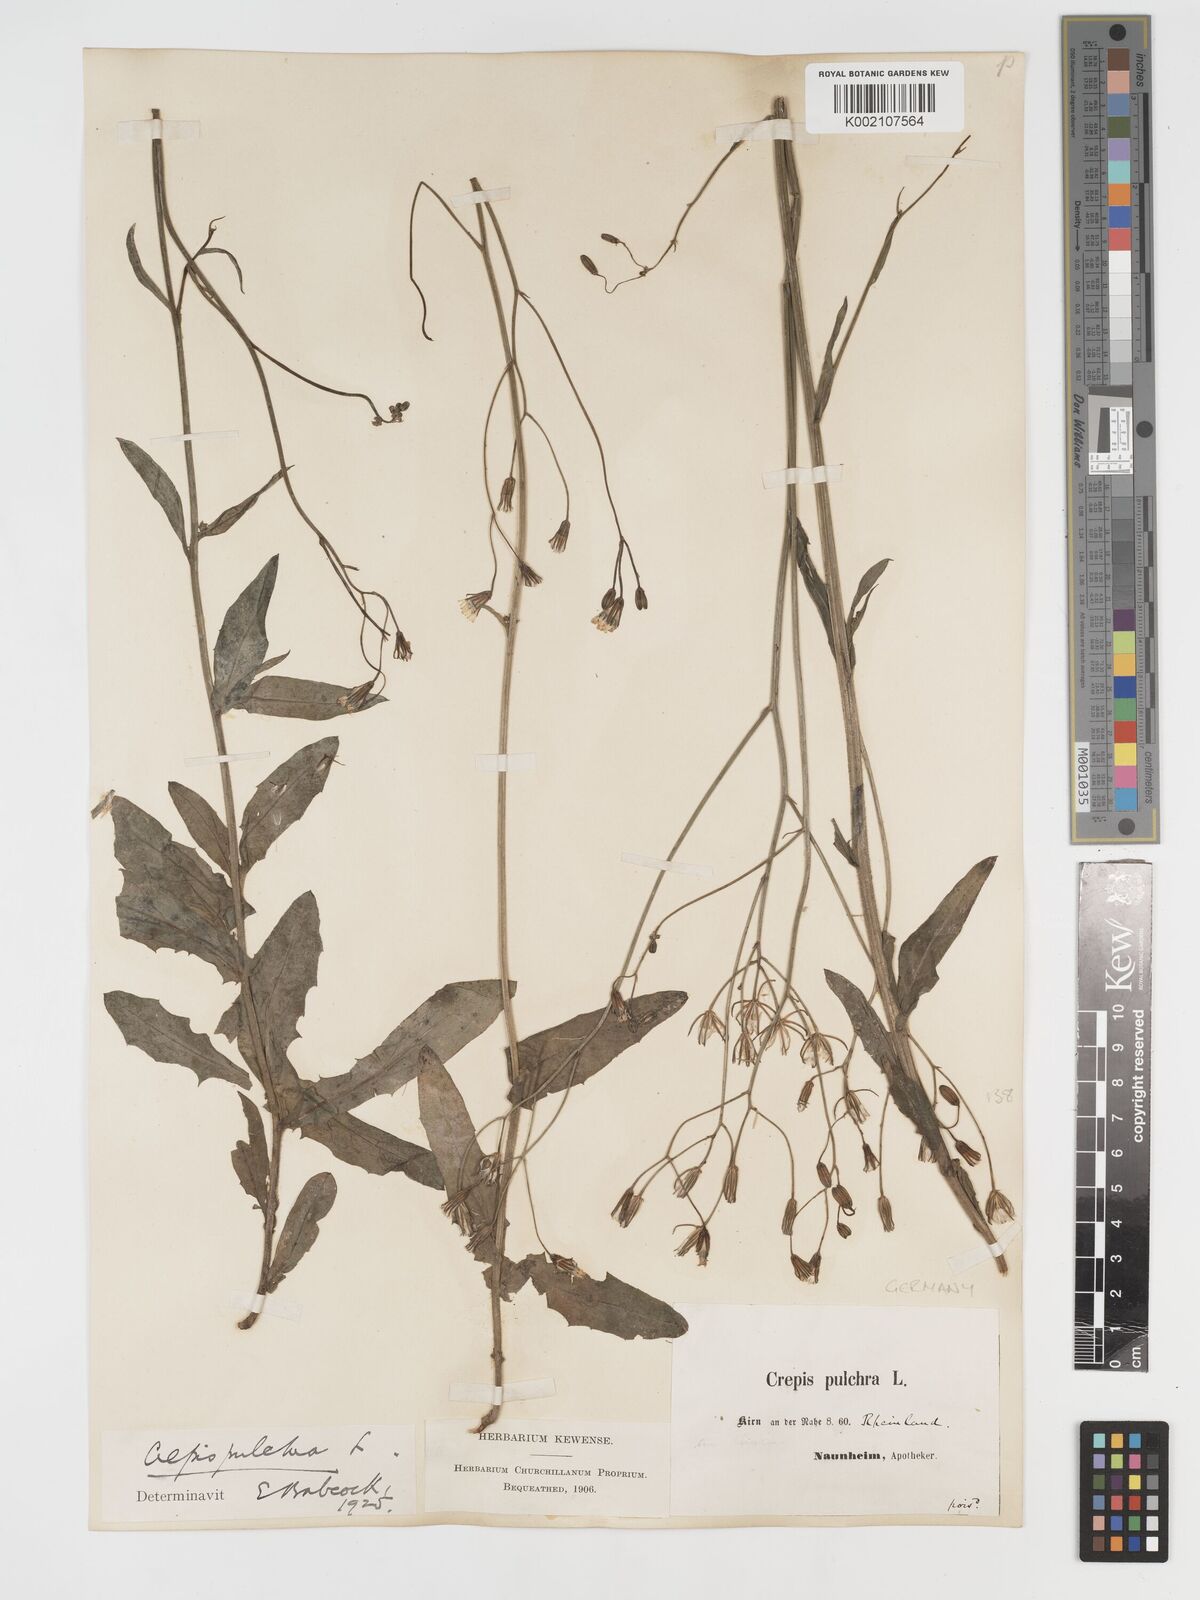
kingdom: Plantae
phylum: Tracheophyta
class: Magnoliopsida
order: Asterales
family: Asteraceae
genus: Crepis
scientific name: Crepis pulchra
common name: Hawk's-beard
